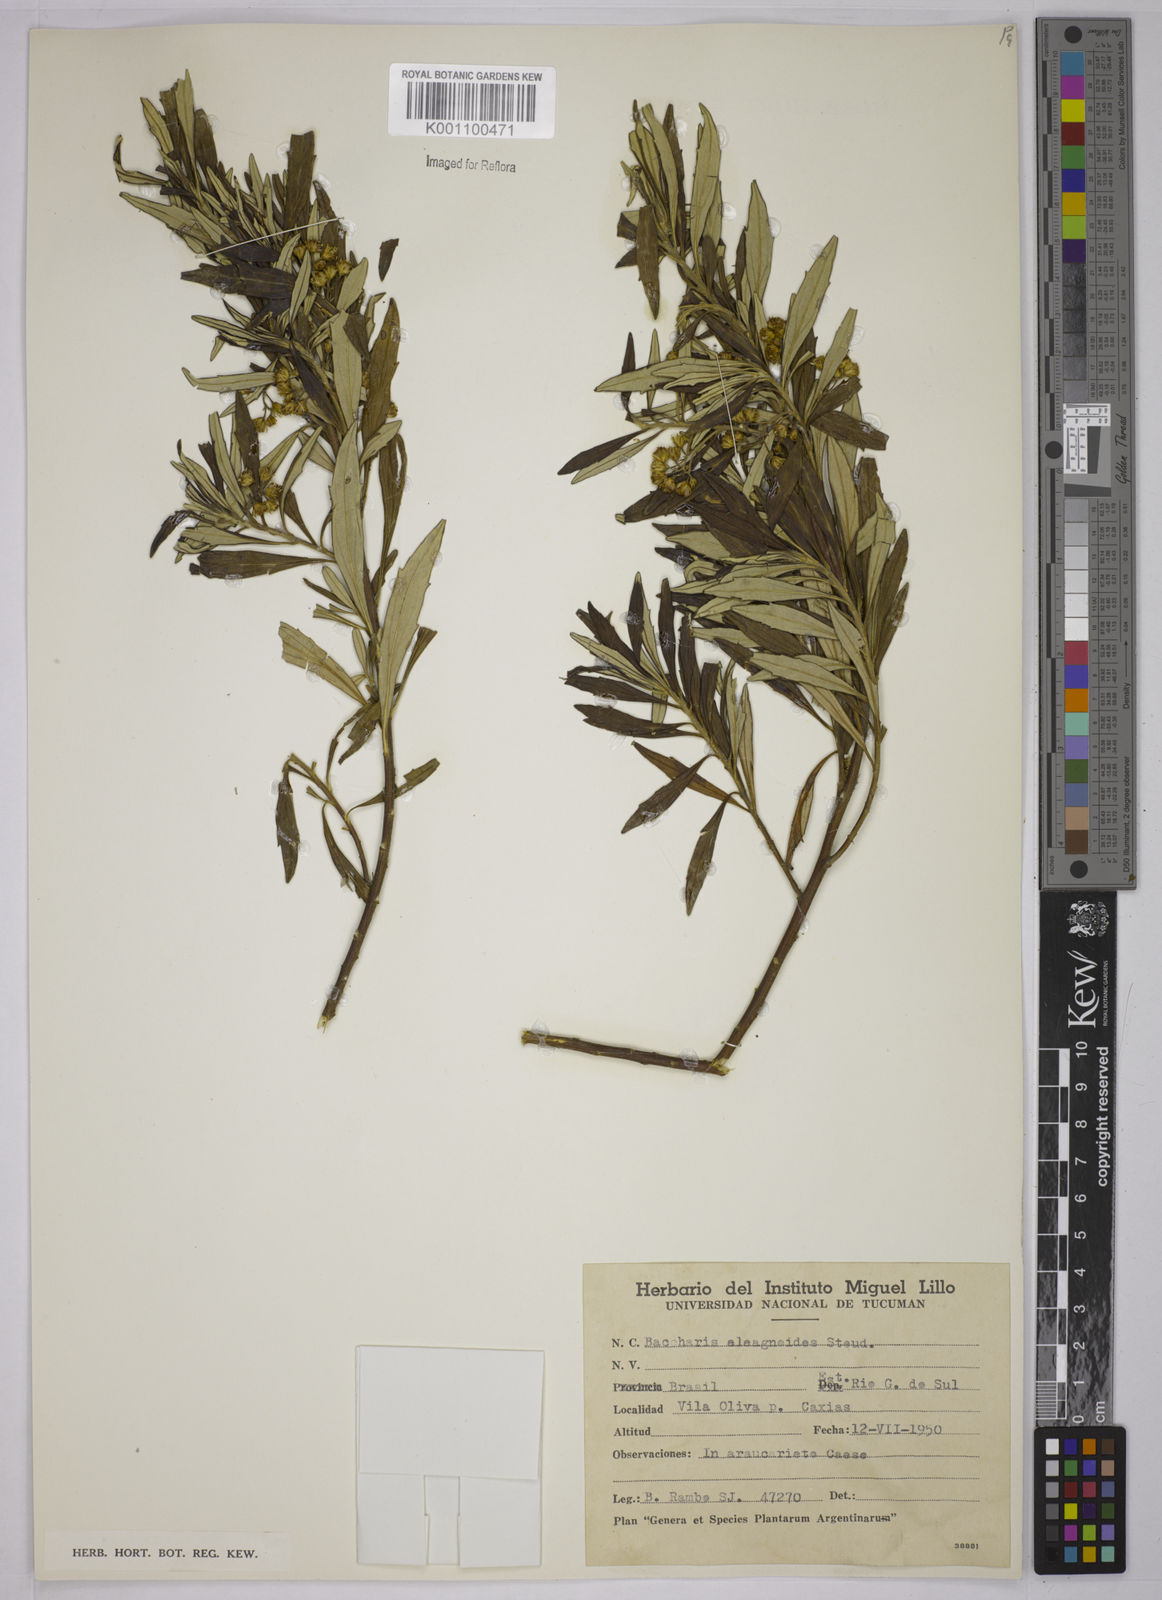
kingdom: Plantae
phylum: Tracheophyta
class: Magnoliopsida
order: Asterales
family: Asteraceae
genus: Baccharis
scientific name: Baccharis
